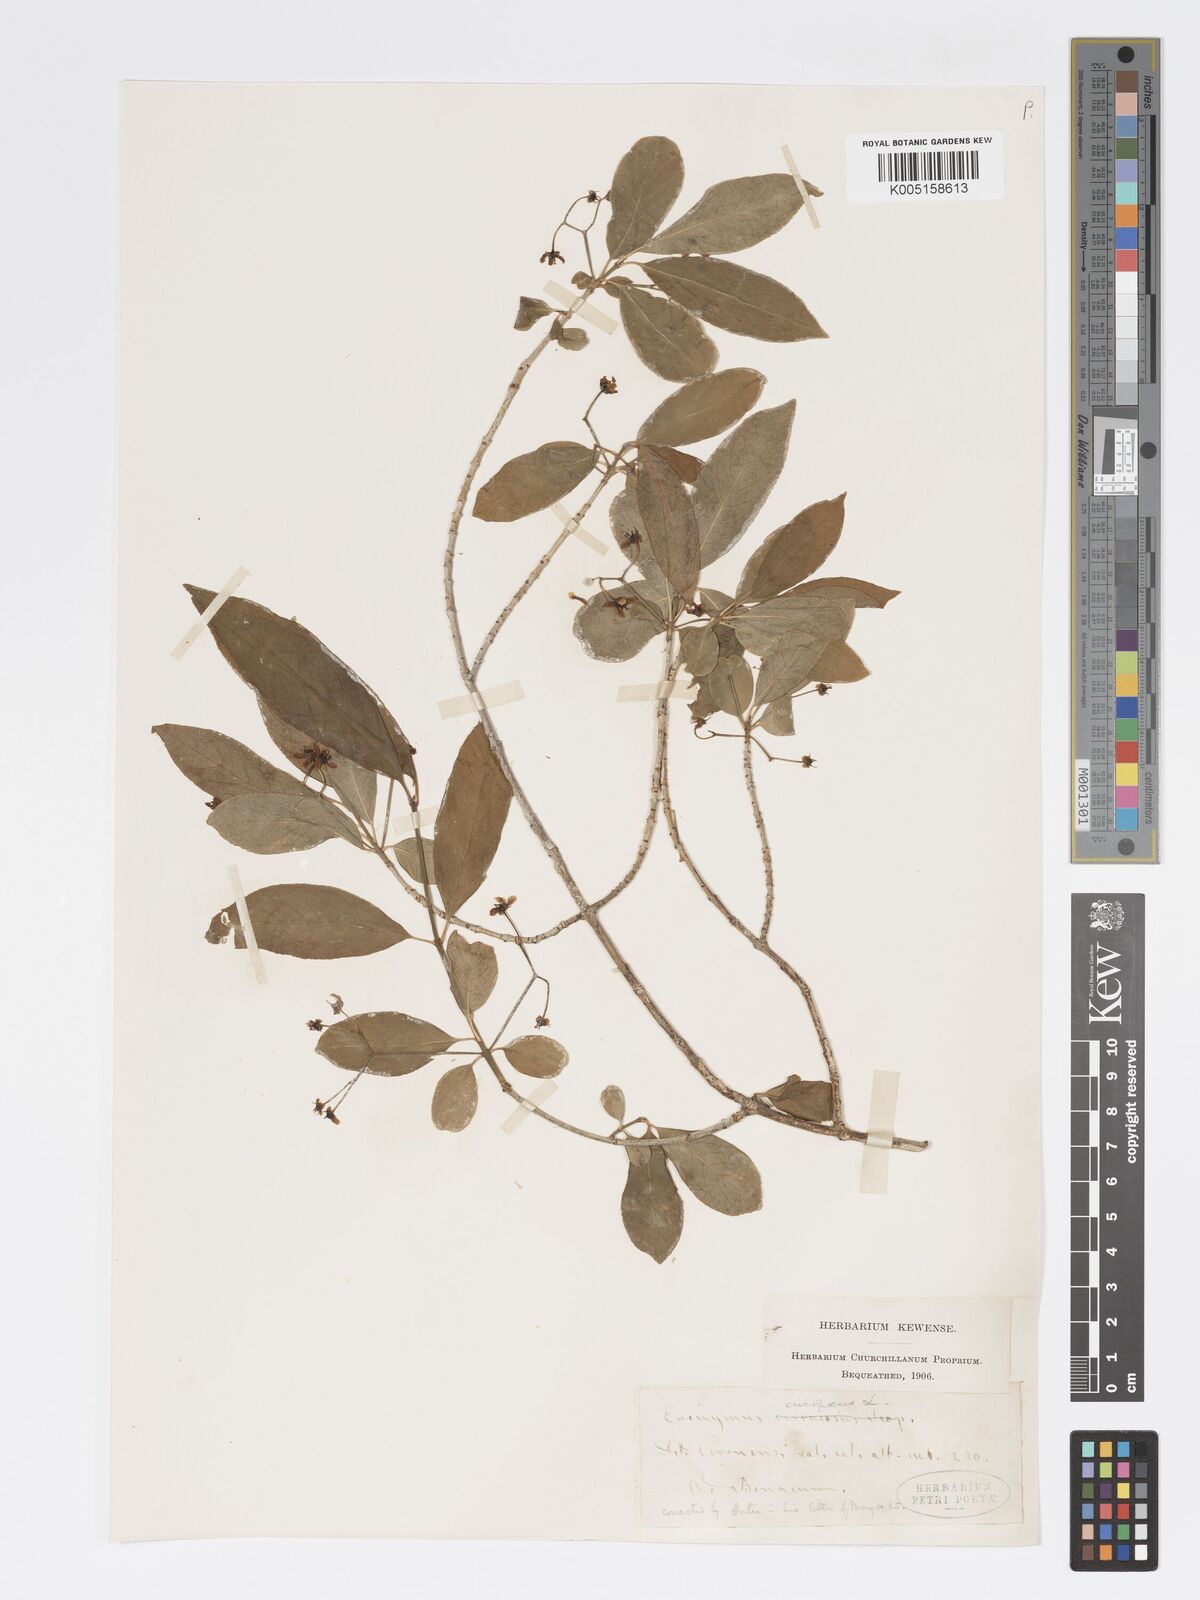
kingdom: Plantae
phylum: Tracheophyta
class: Magnoliopsida
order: Celastrales
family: Celastraceae
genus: Euonymus
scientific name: Euonymus europaeus
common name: Spindle
